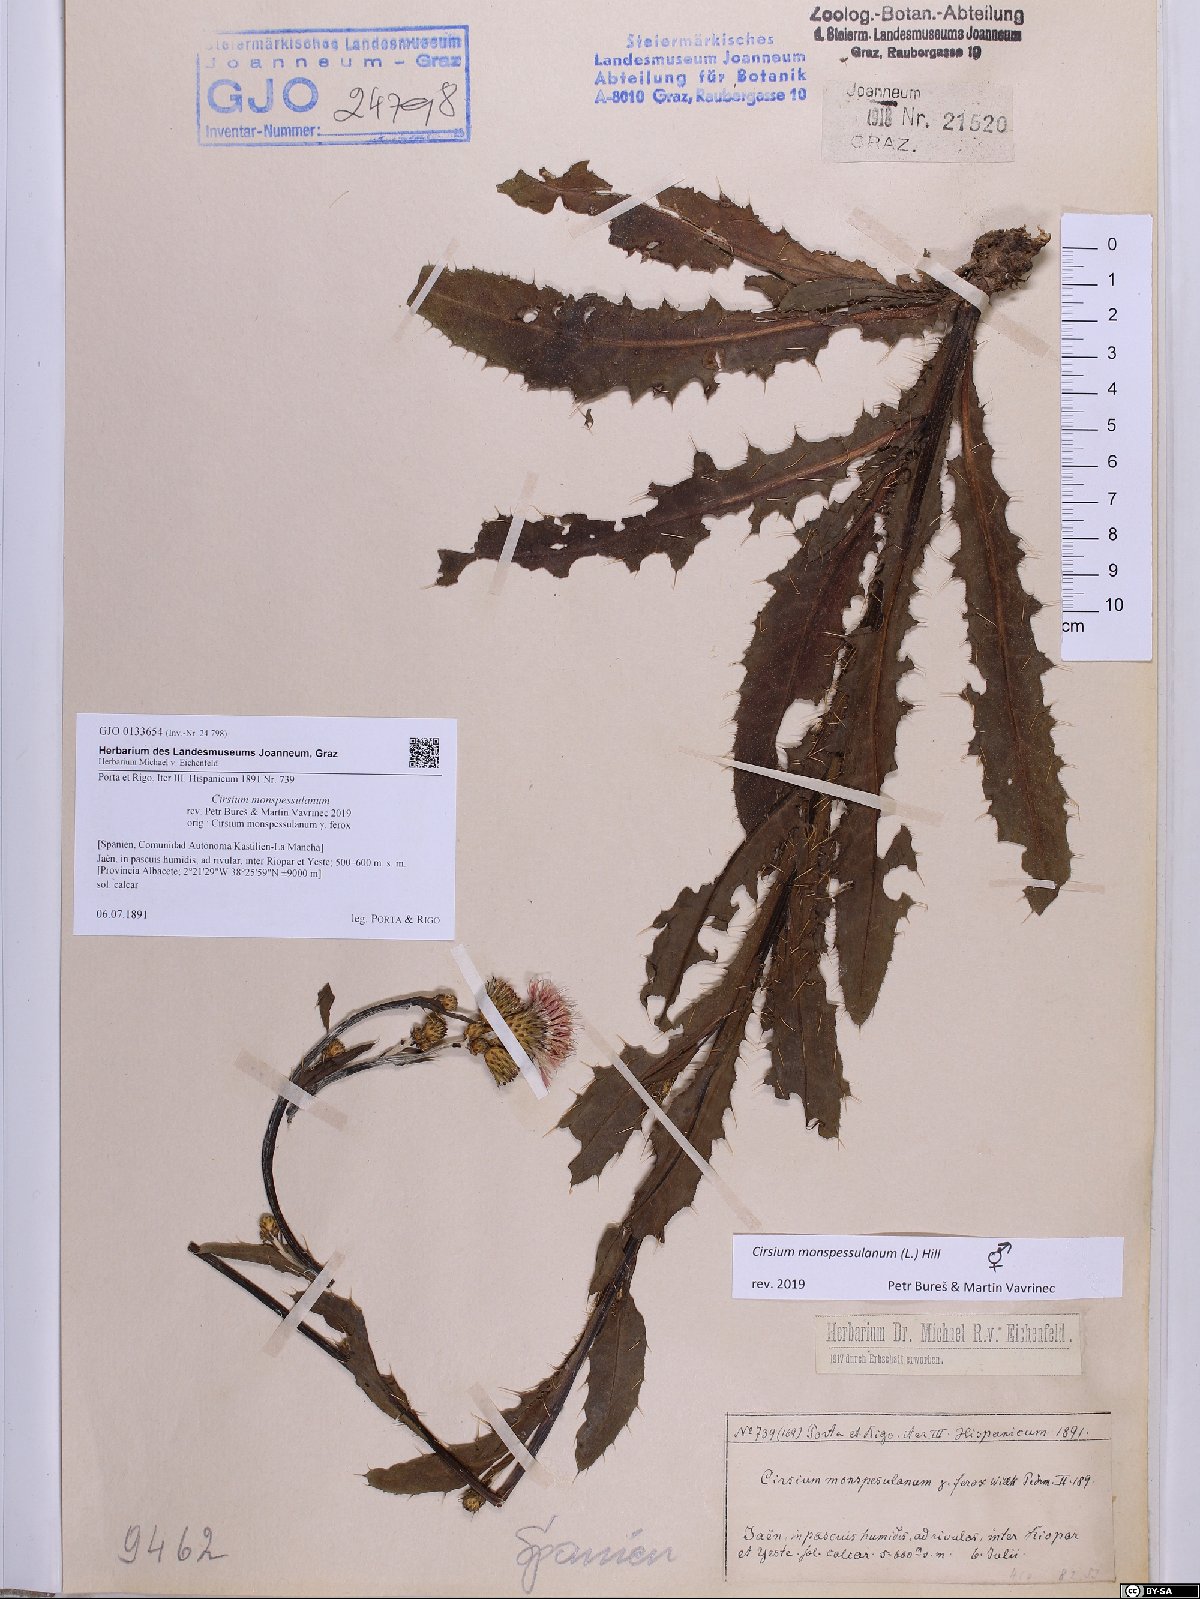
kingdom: Plantae
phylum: Tracheophyta
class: Magnoliopsida
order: Asterales
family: Asteraceae
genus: Cirsium
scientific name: Cirsium monspessulanum
